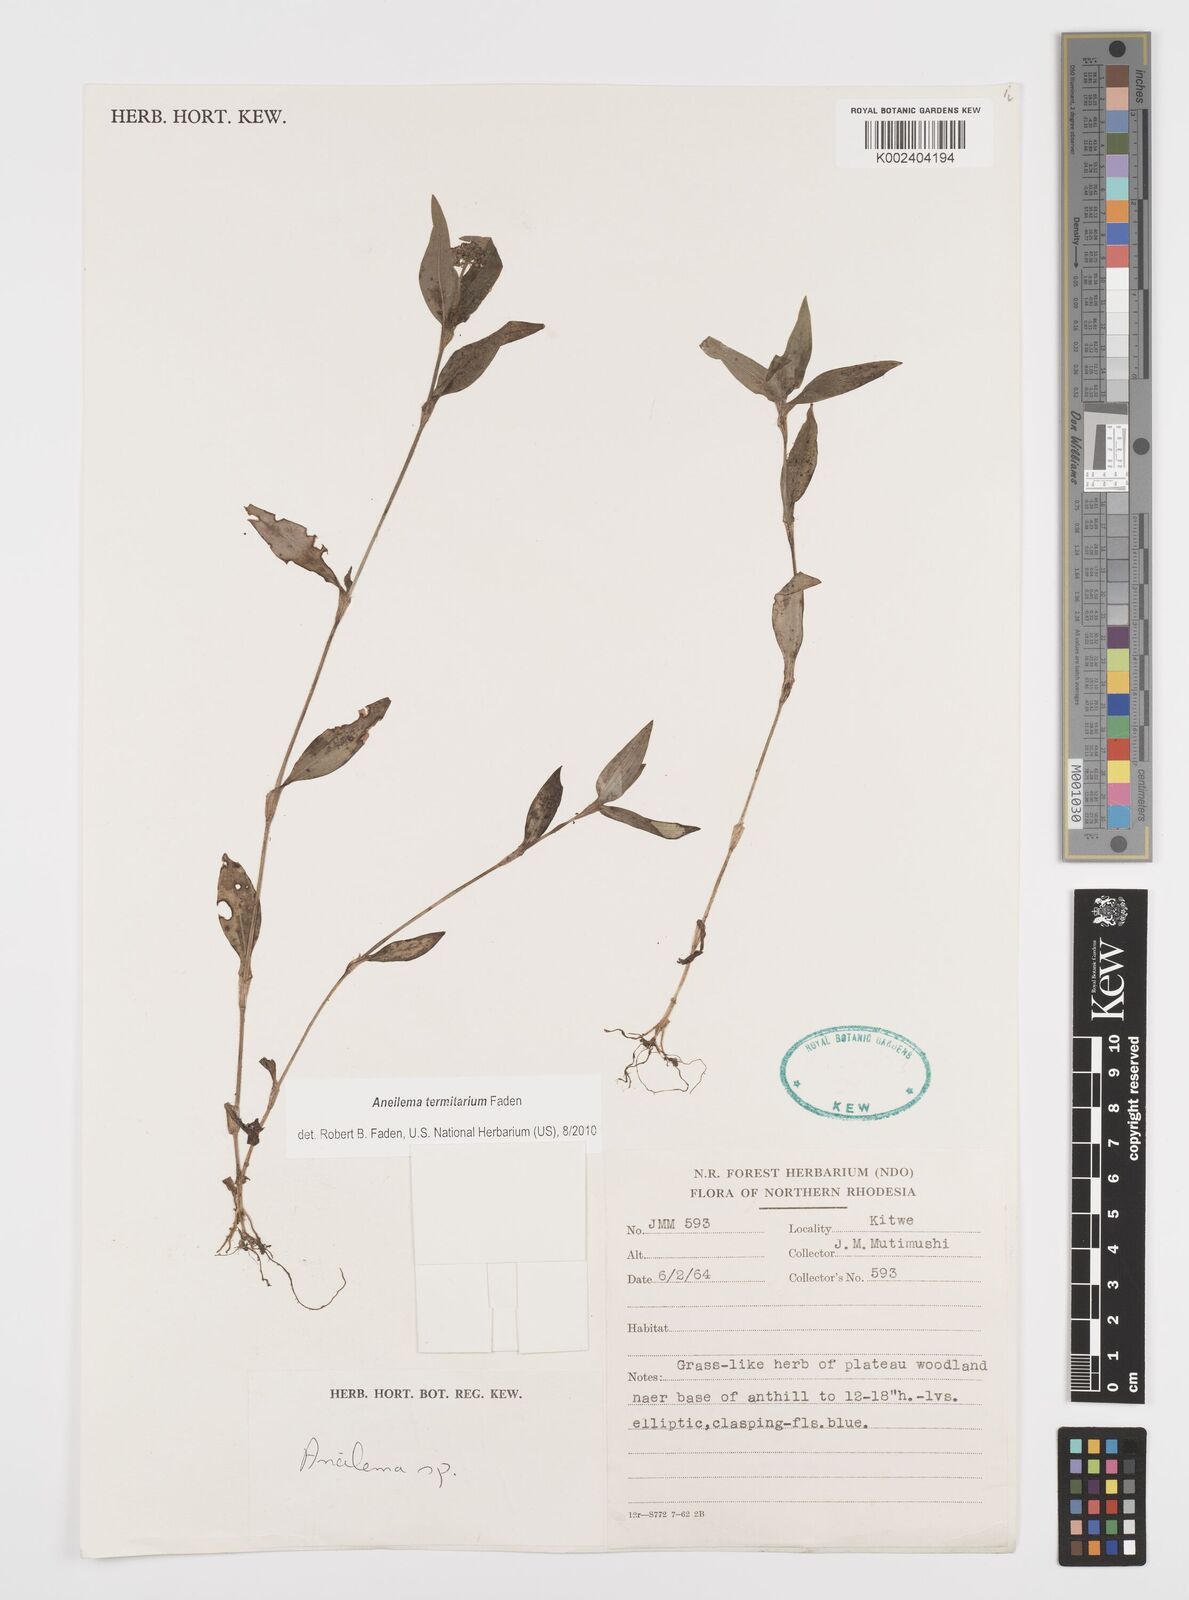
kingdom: Plantae
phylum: Tracheophyta
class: Liliopsida
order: Commelinales
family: Commelinaceae
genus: Aneilema
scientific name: Aneilema termitarium
